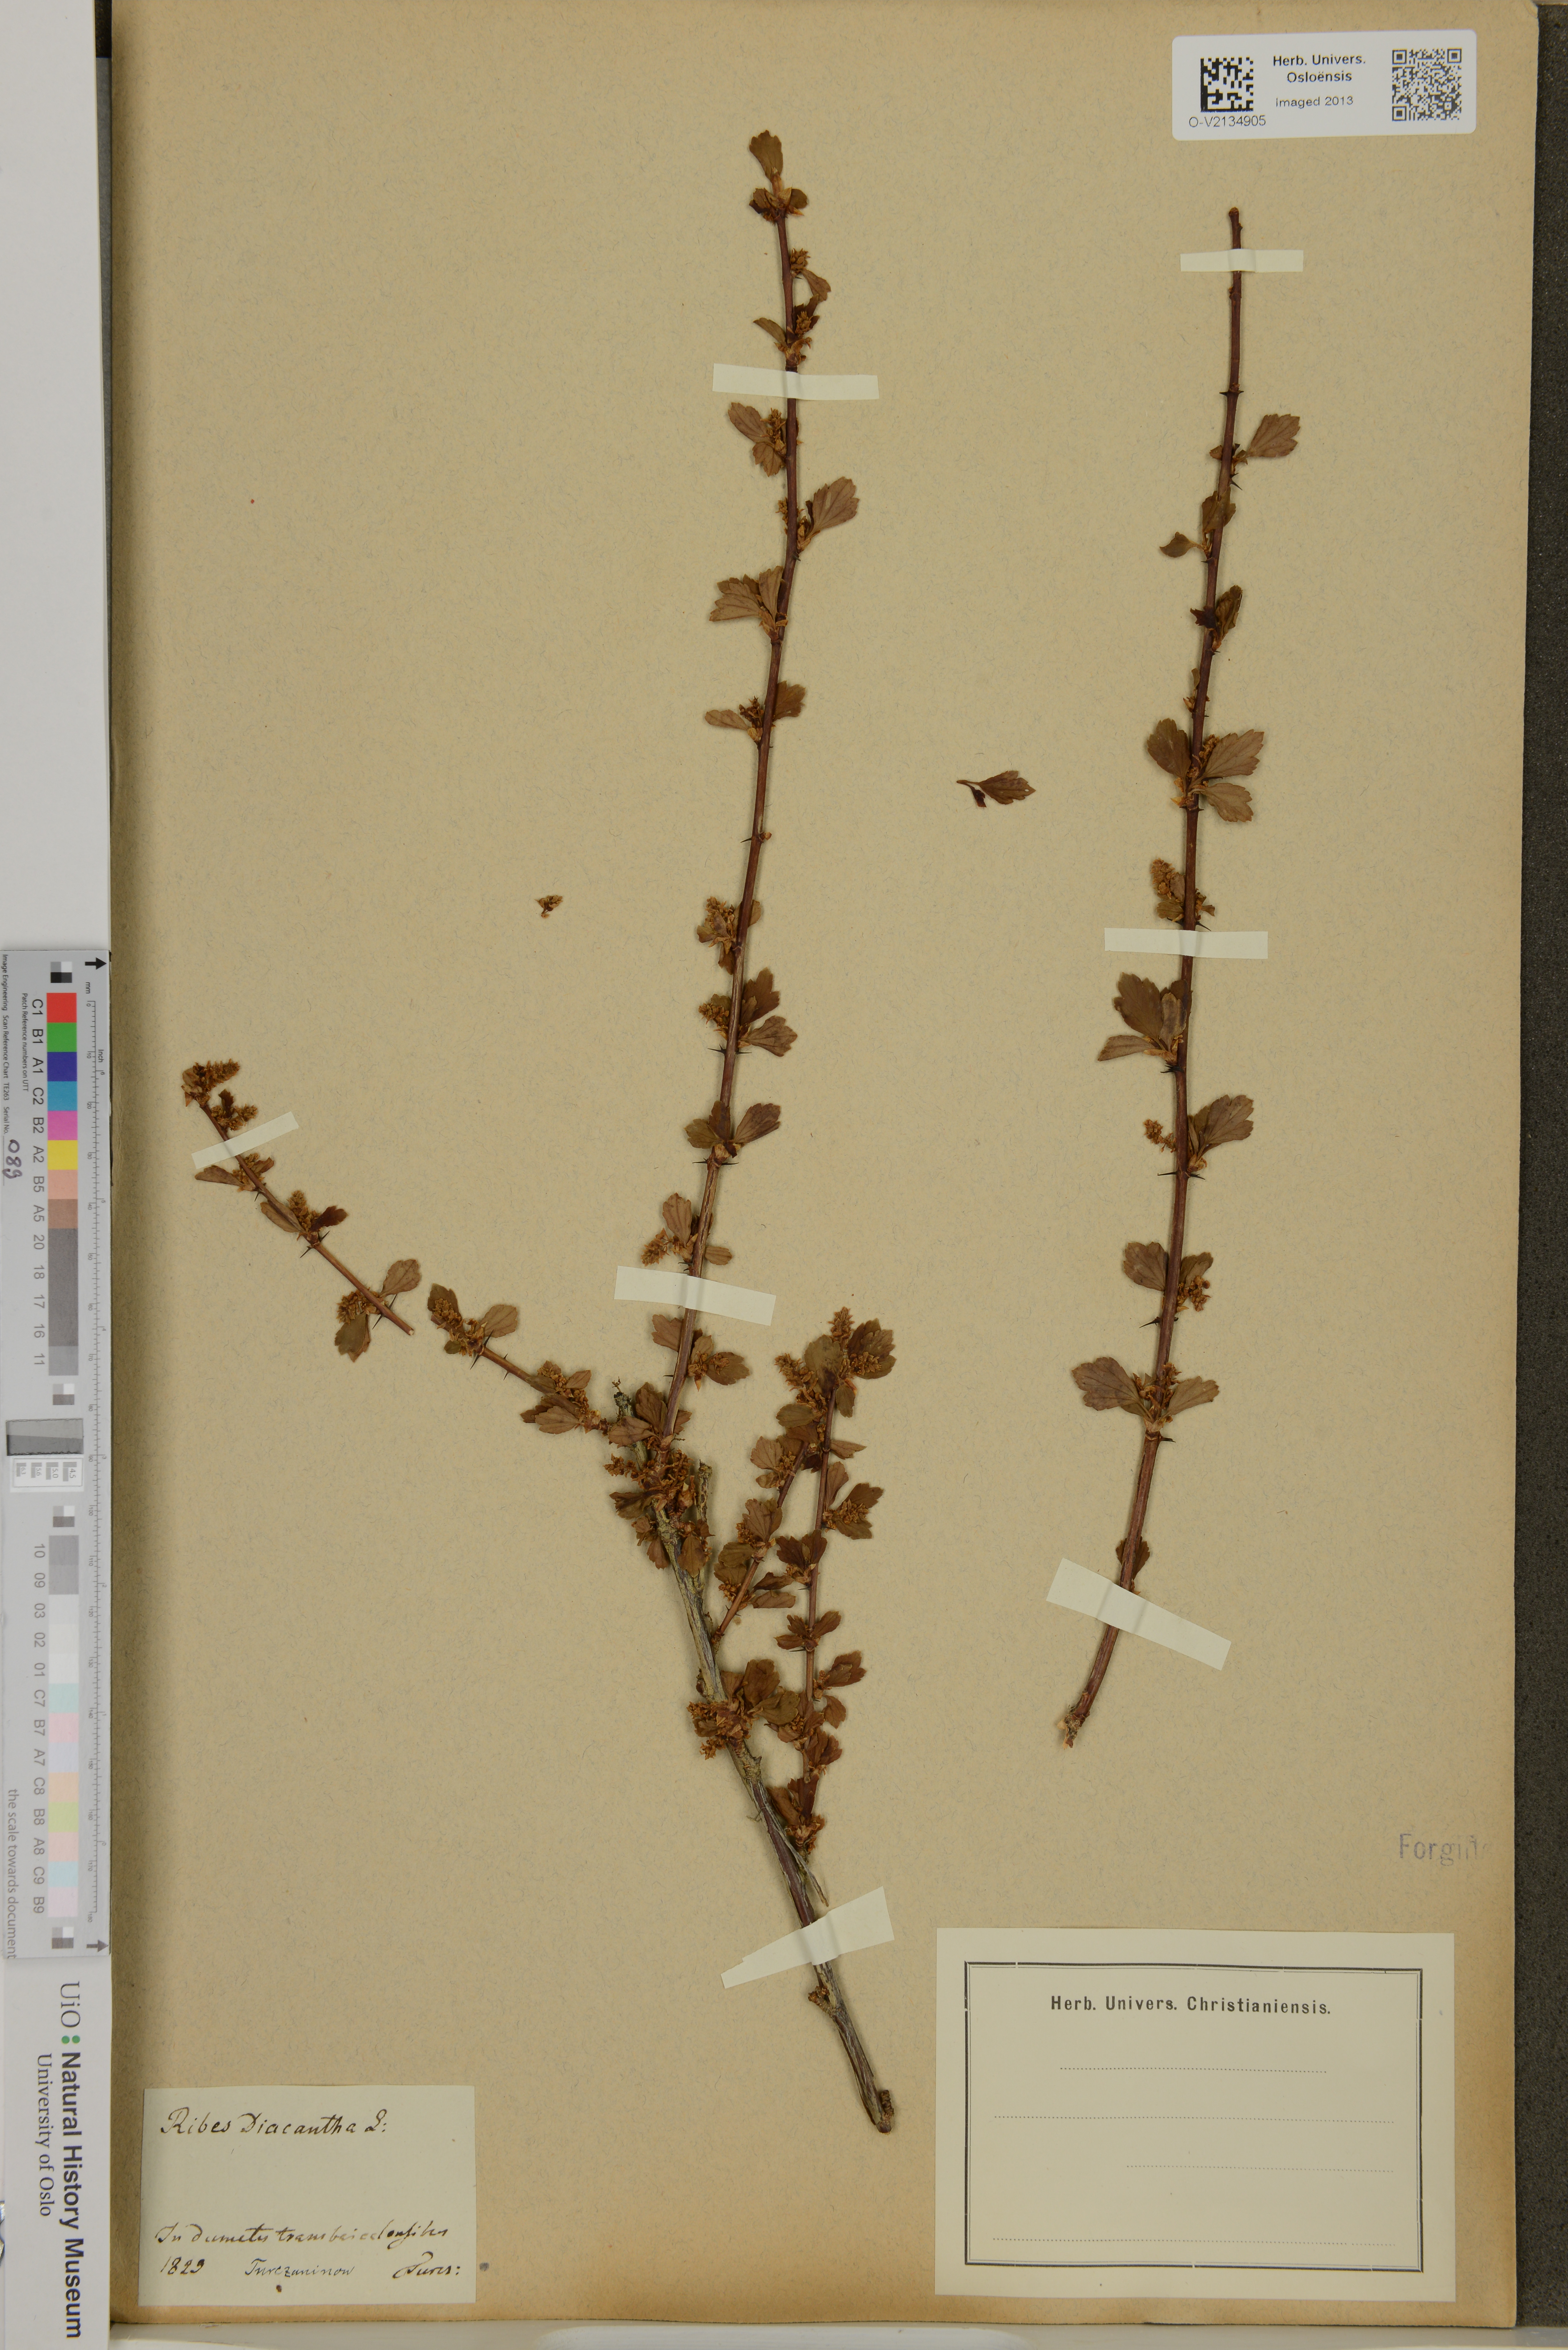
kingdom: Plantae
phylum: Tracheophyta
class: Magnoliopsida
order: Saxifragales
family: Grossulariaceae
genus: Ribes
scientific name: Ribes diacanthum
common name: Siberian currant
